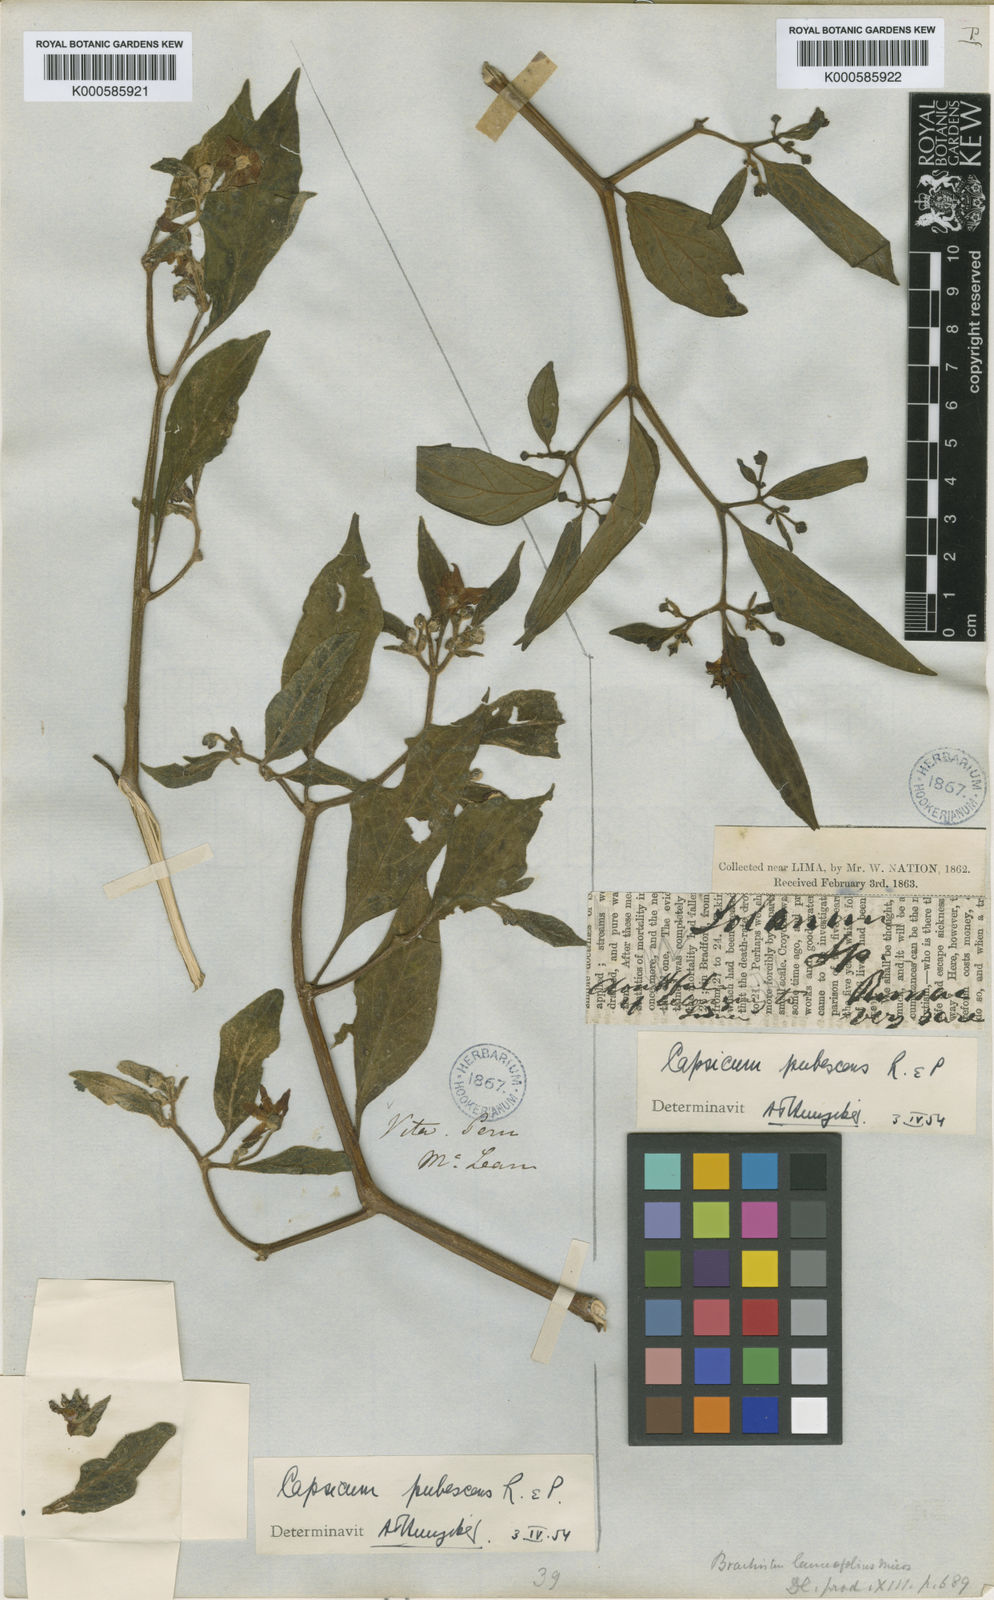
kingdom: Plantae
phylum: Tracheophyta
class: Magnoliopsida
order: Solanales
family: Solanaceae
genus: Capsicum
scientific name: Capsicum pubescens
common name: Apple chile
